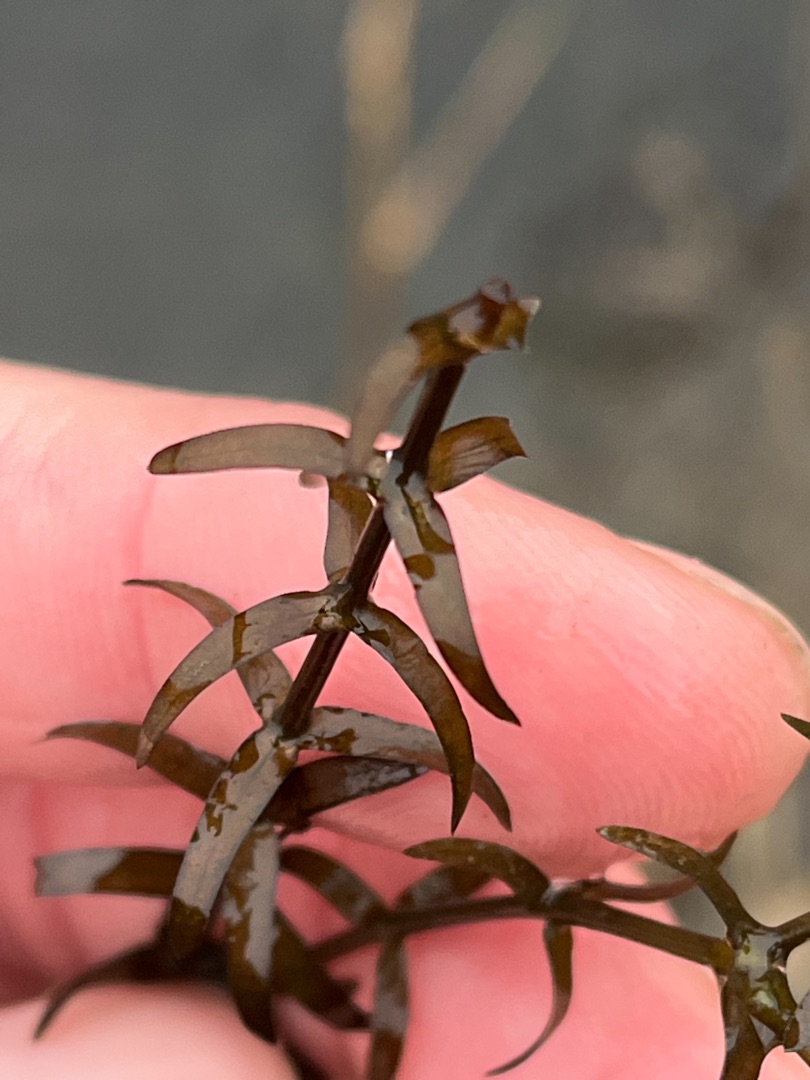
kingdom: Plantae
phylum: Tracheophyta
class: Liliopsida
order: Alismatales
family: Hydrocharitaceae
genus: Elodea
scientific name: Elodea nuttallii
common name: Smalbladet vandpest
